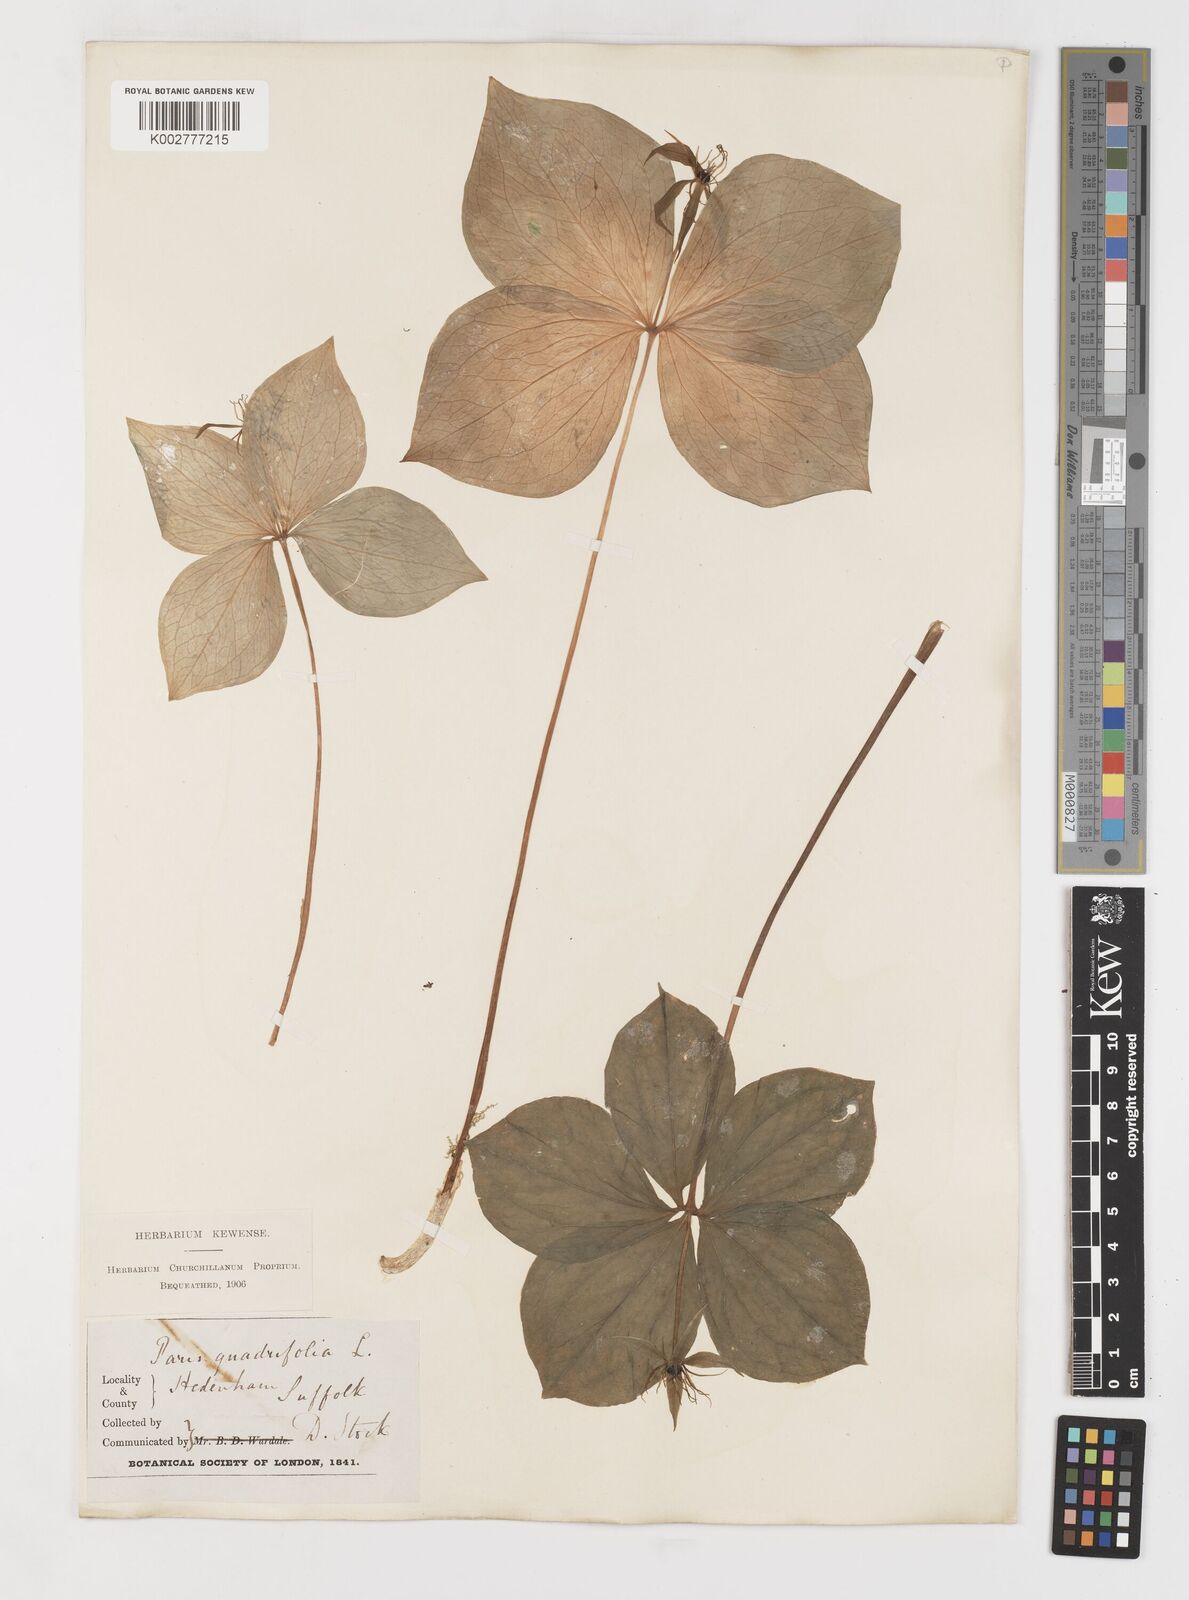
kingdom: Plantae
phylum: Tracheophyta
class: Liliopsida
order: Liliales
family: Melanthiaceae
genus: Paris
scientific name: Paris quadrifolia
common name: Herb-paris
